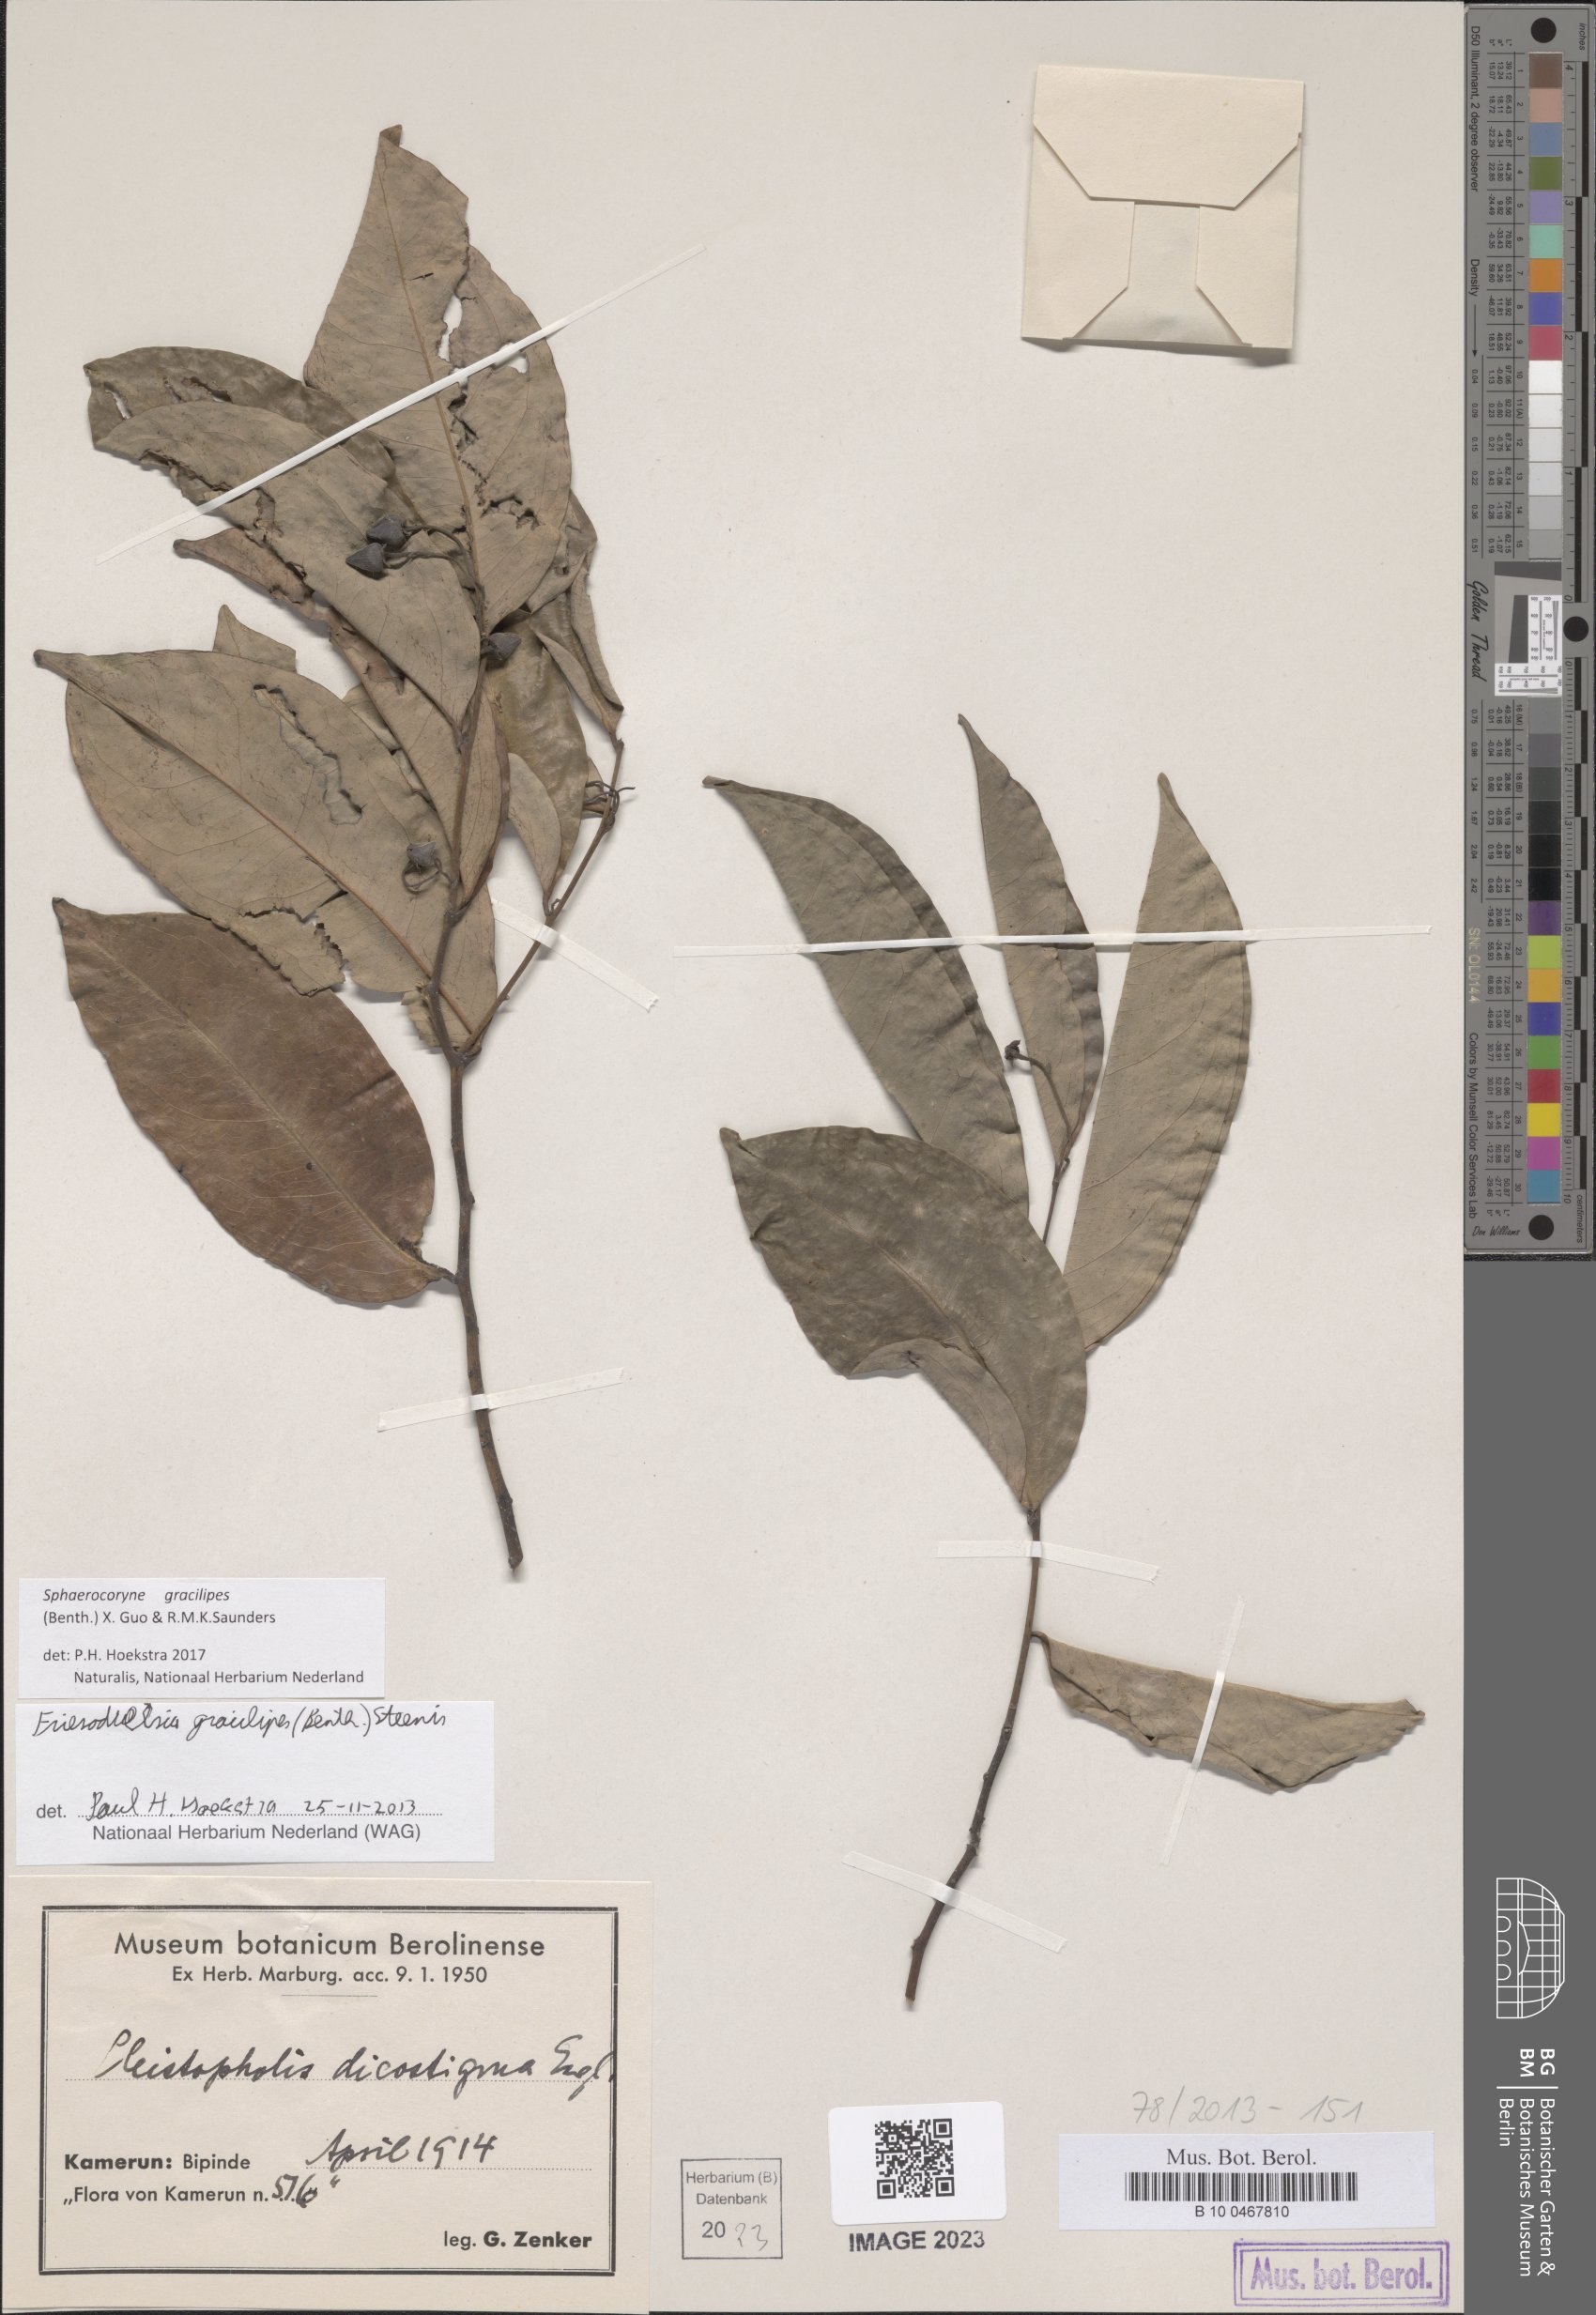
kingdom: Plantae
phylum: Tracheophyta
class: Magnoliopsida
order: Magnoliales
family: Annonaceae
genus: Friesodielsia
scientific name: Friesodielsia gracilipes
